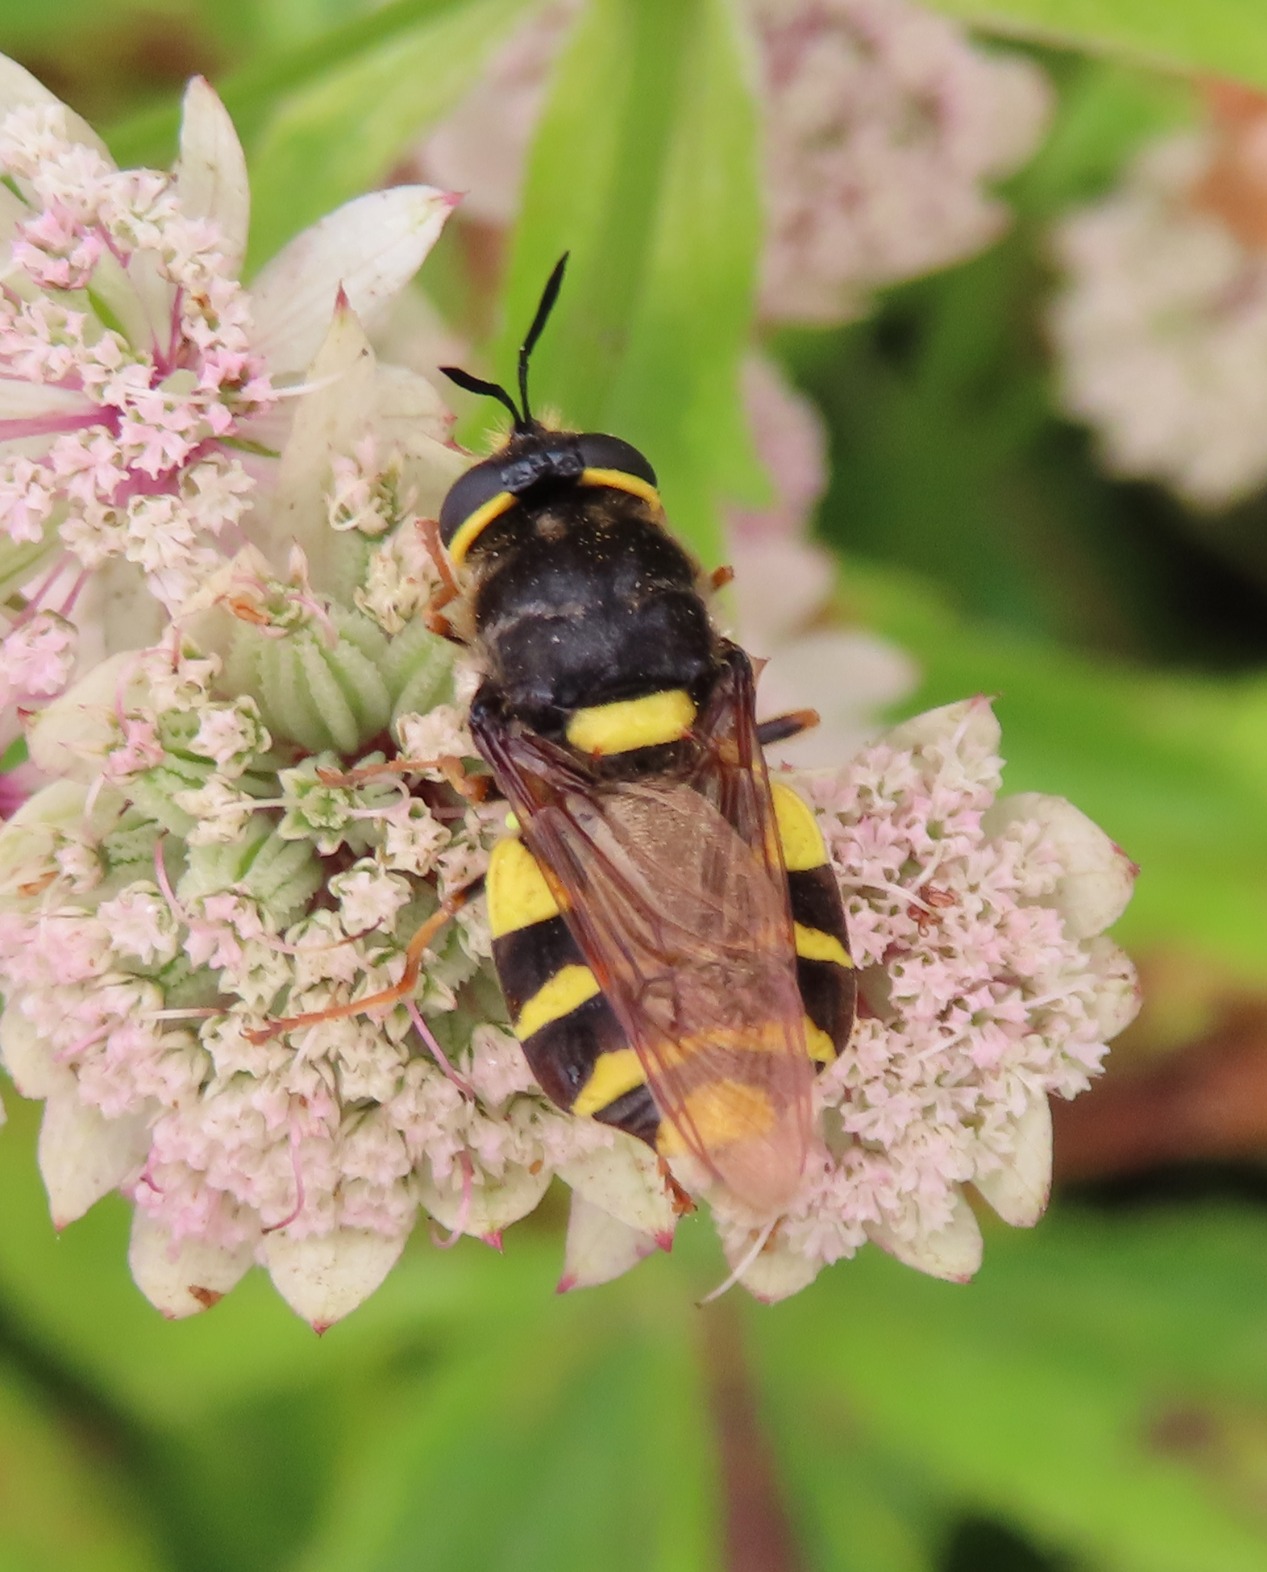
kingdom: Animalia
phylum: Arthropoda
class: Insecta
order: Diptera
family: Stratiomyidae
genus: Stratiomys
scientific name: Stratiomys potamida
